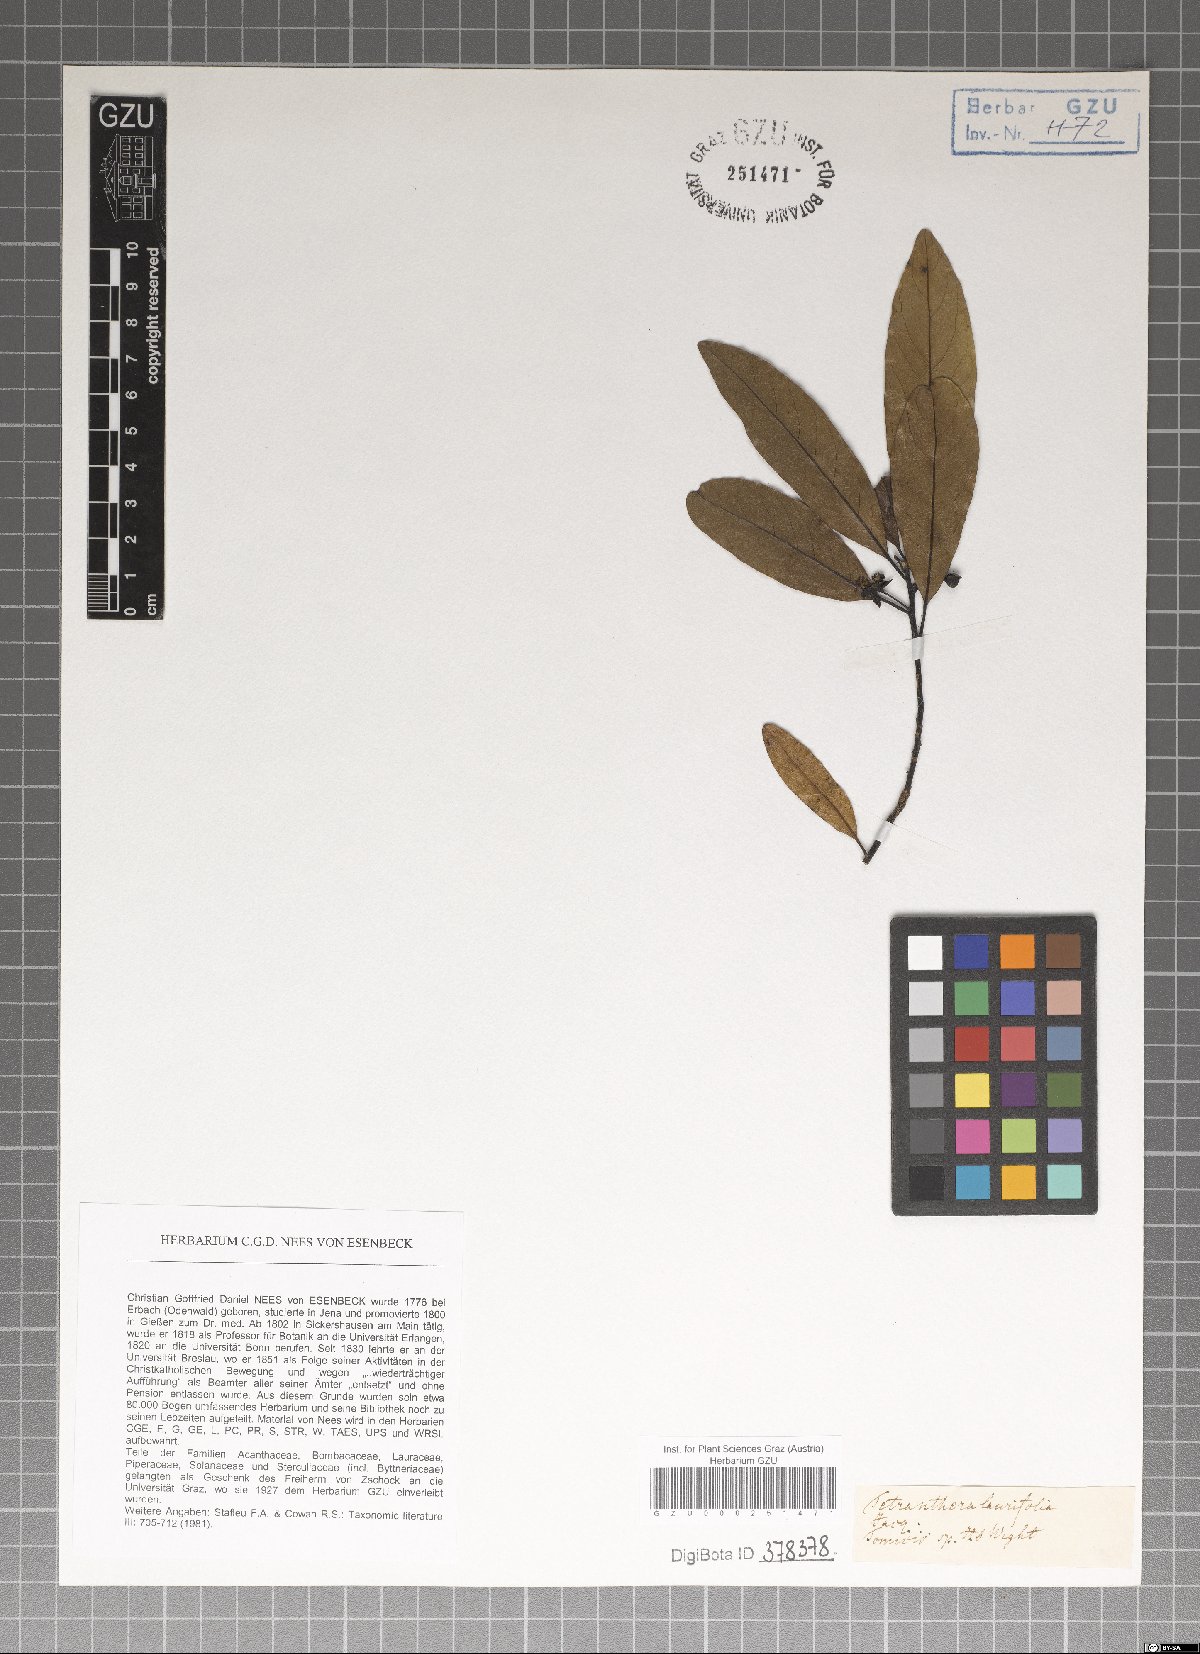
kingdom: Plantae
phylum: Tracheophyta
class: Magnoliopsida
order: Sapindales
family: Sapindaceae
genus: Litchi
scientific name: Litchi chinensis
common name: Litchi
